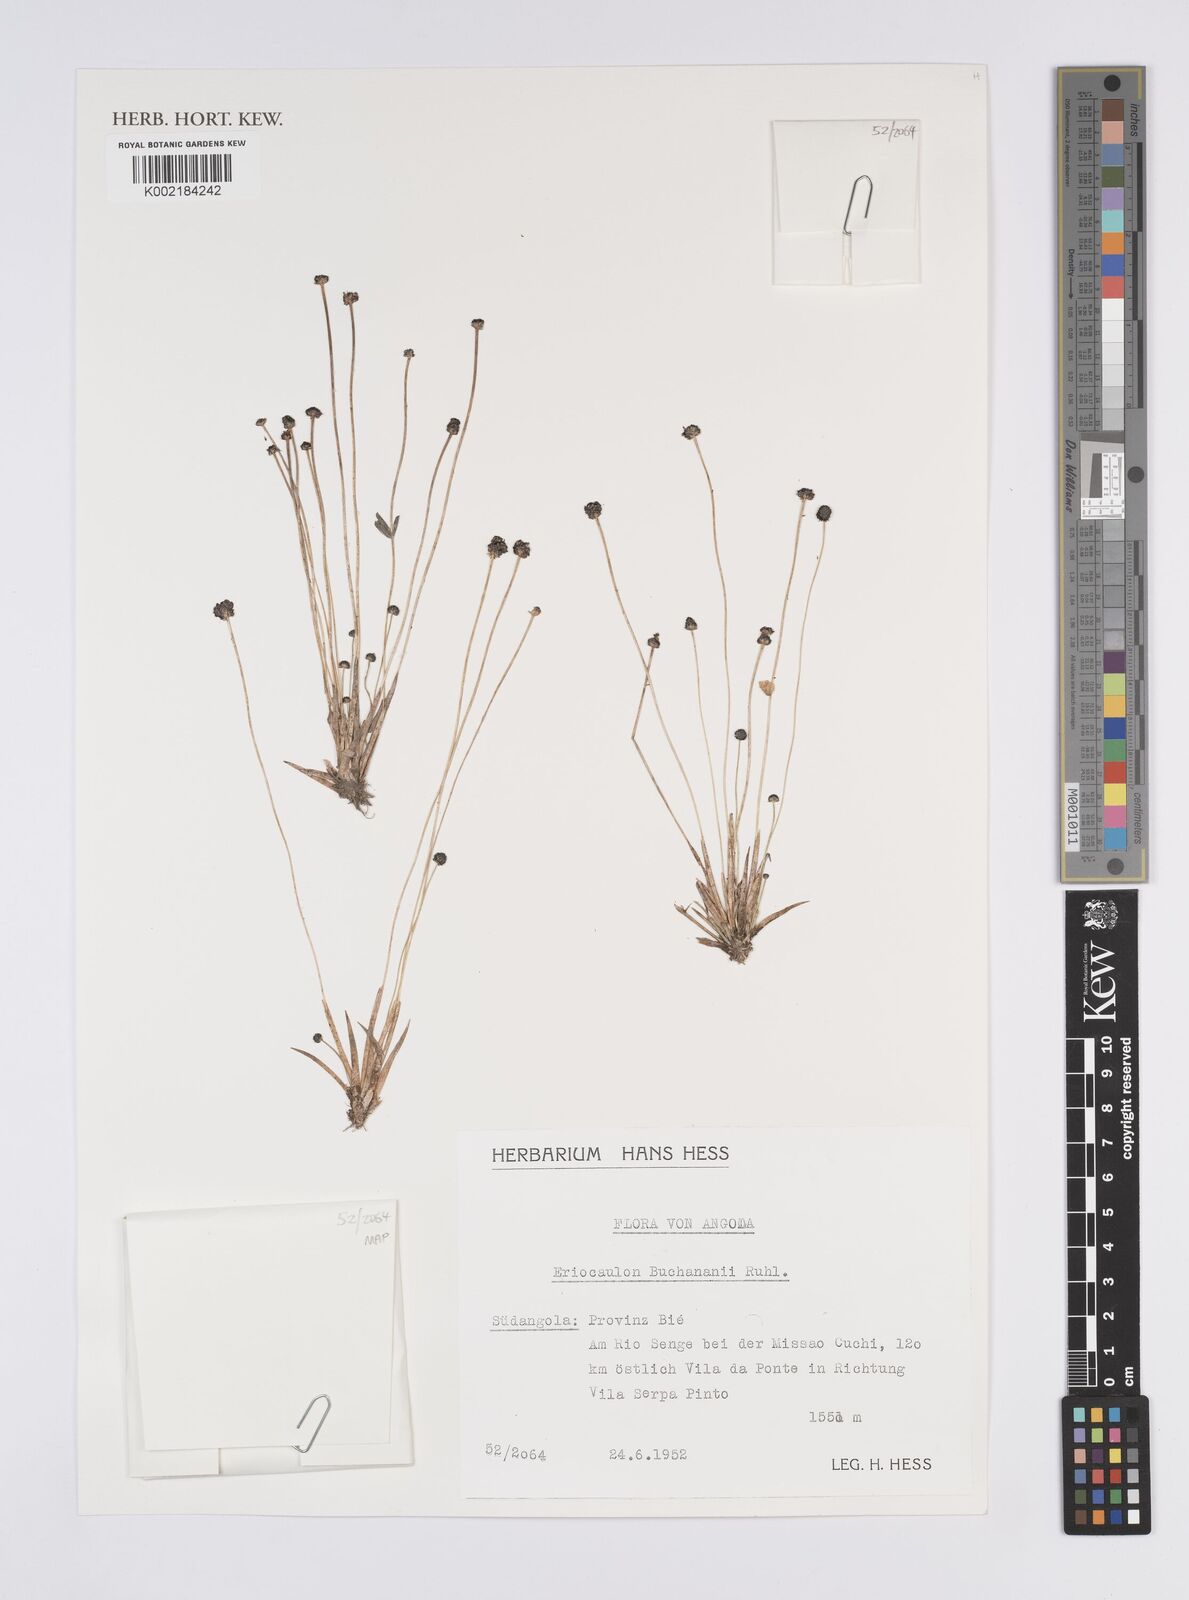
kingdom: Plantae
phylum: Tracheophyta
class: Liliopsida
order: Poales
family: Eriocaulaceae
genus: Eriocaulon
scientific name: Eriocaulon buchananii
